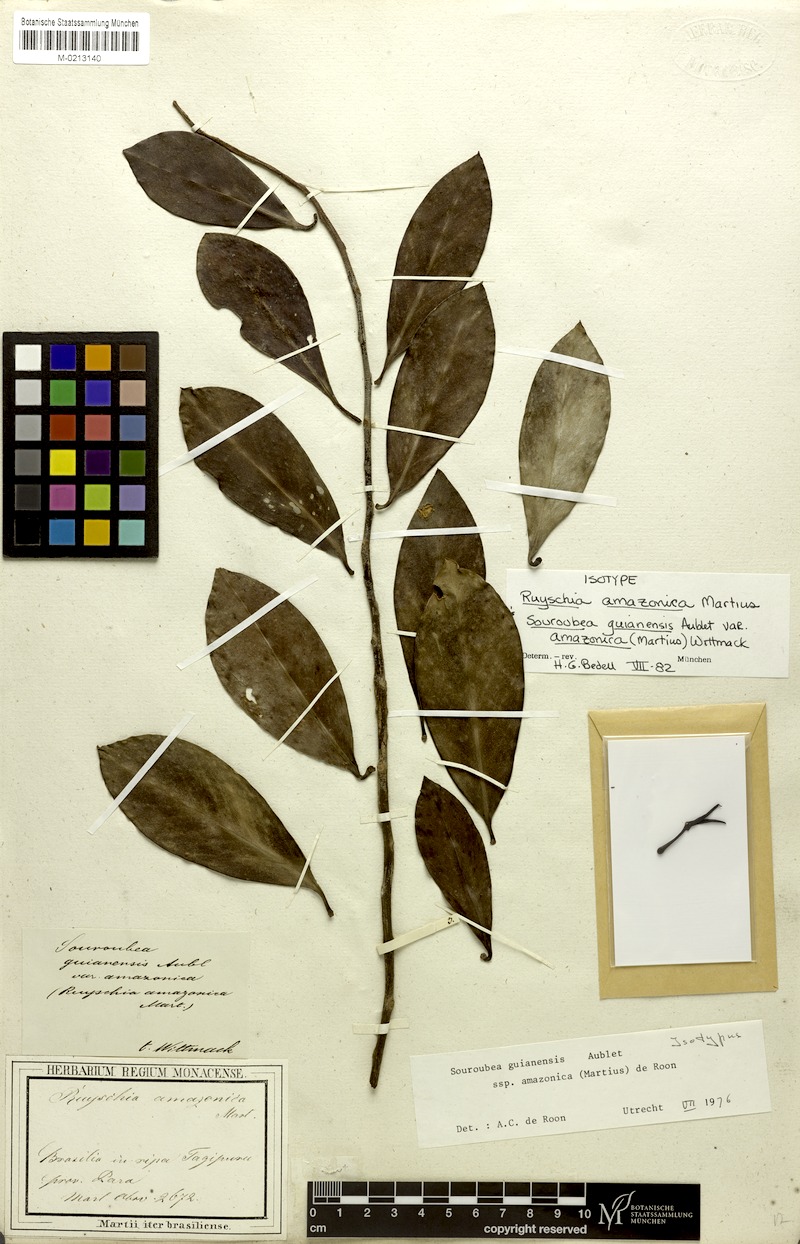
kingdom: Plantae
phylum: Tracheophyta
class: Magnoliopsida
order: Ericales
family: Marcgraviaceae
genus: Souroubea
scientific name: Souroubea guianensis
